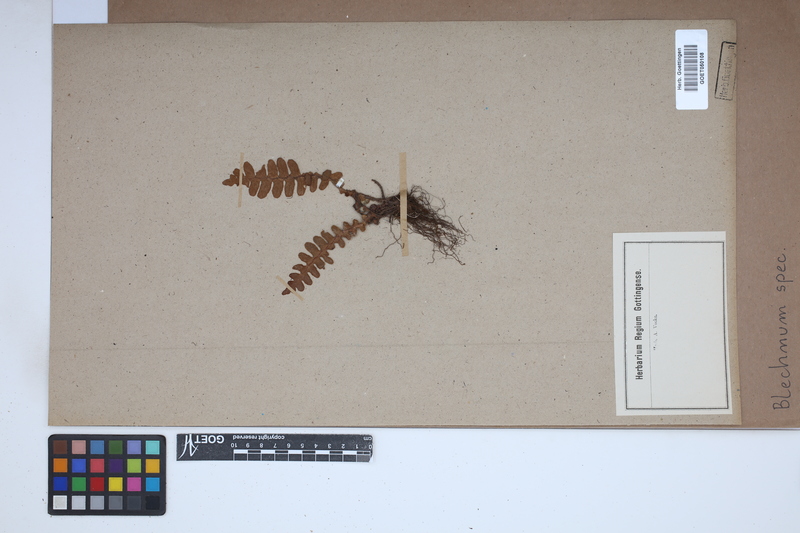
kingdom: Plantae
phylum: Tracheophyta
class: Polypodiopsida
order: Polypodiales
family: Blechnaceae
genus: Blechnum
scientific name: Blechnum
